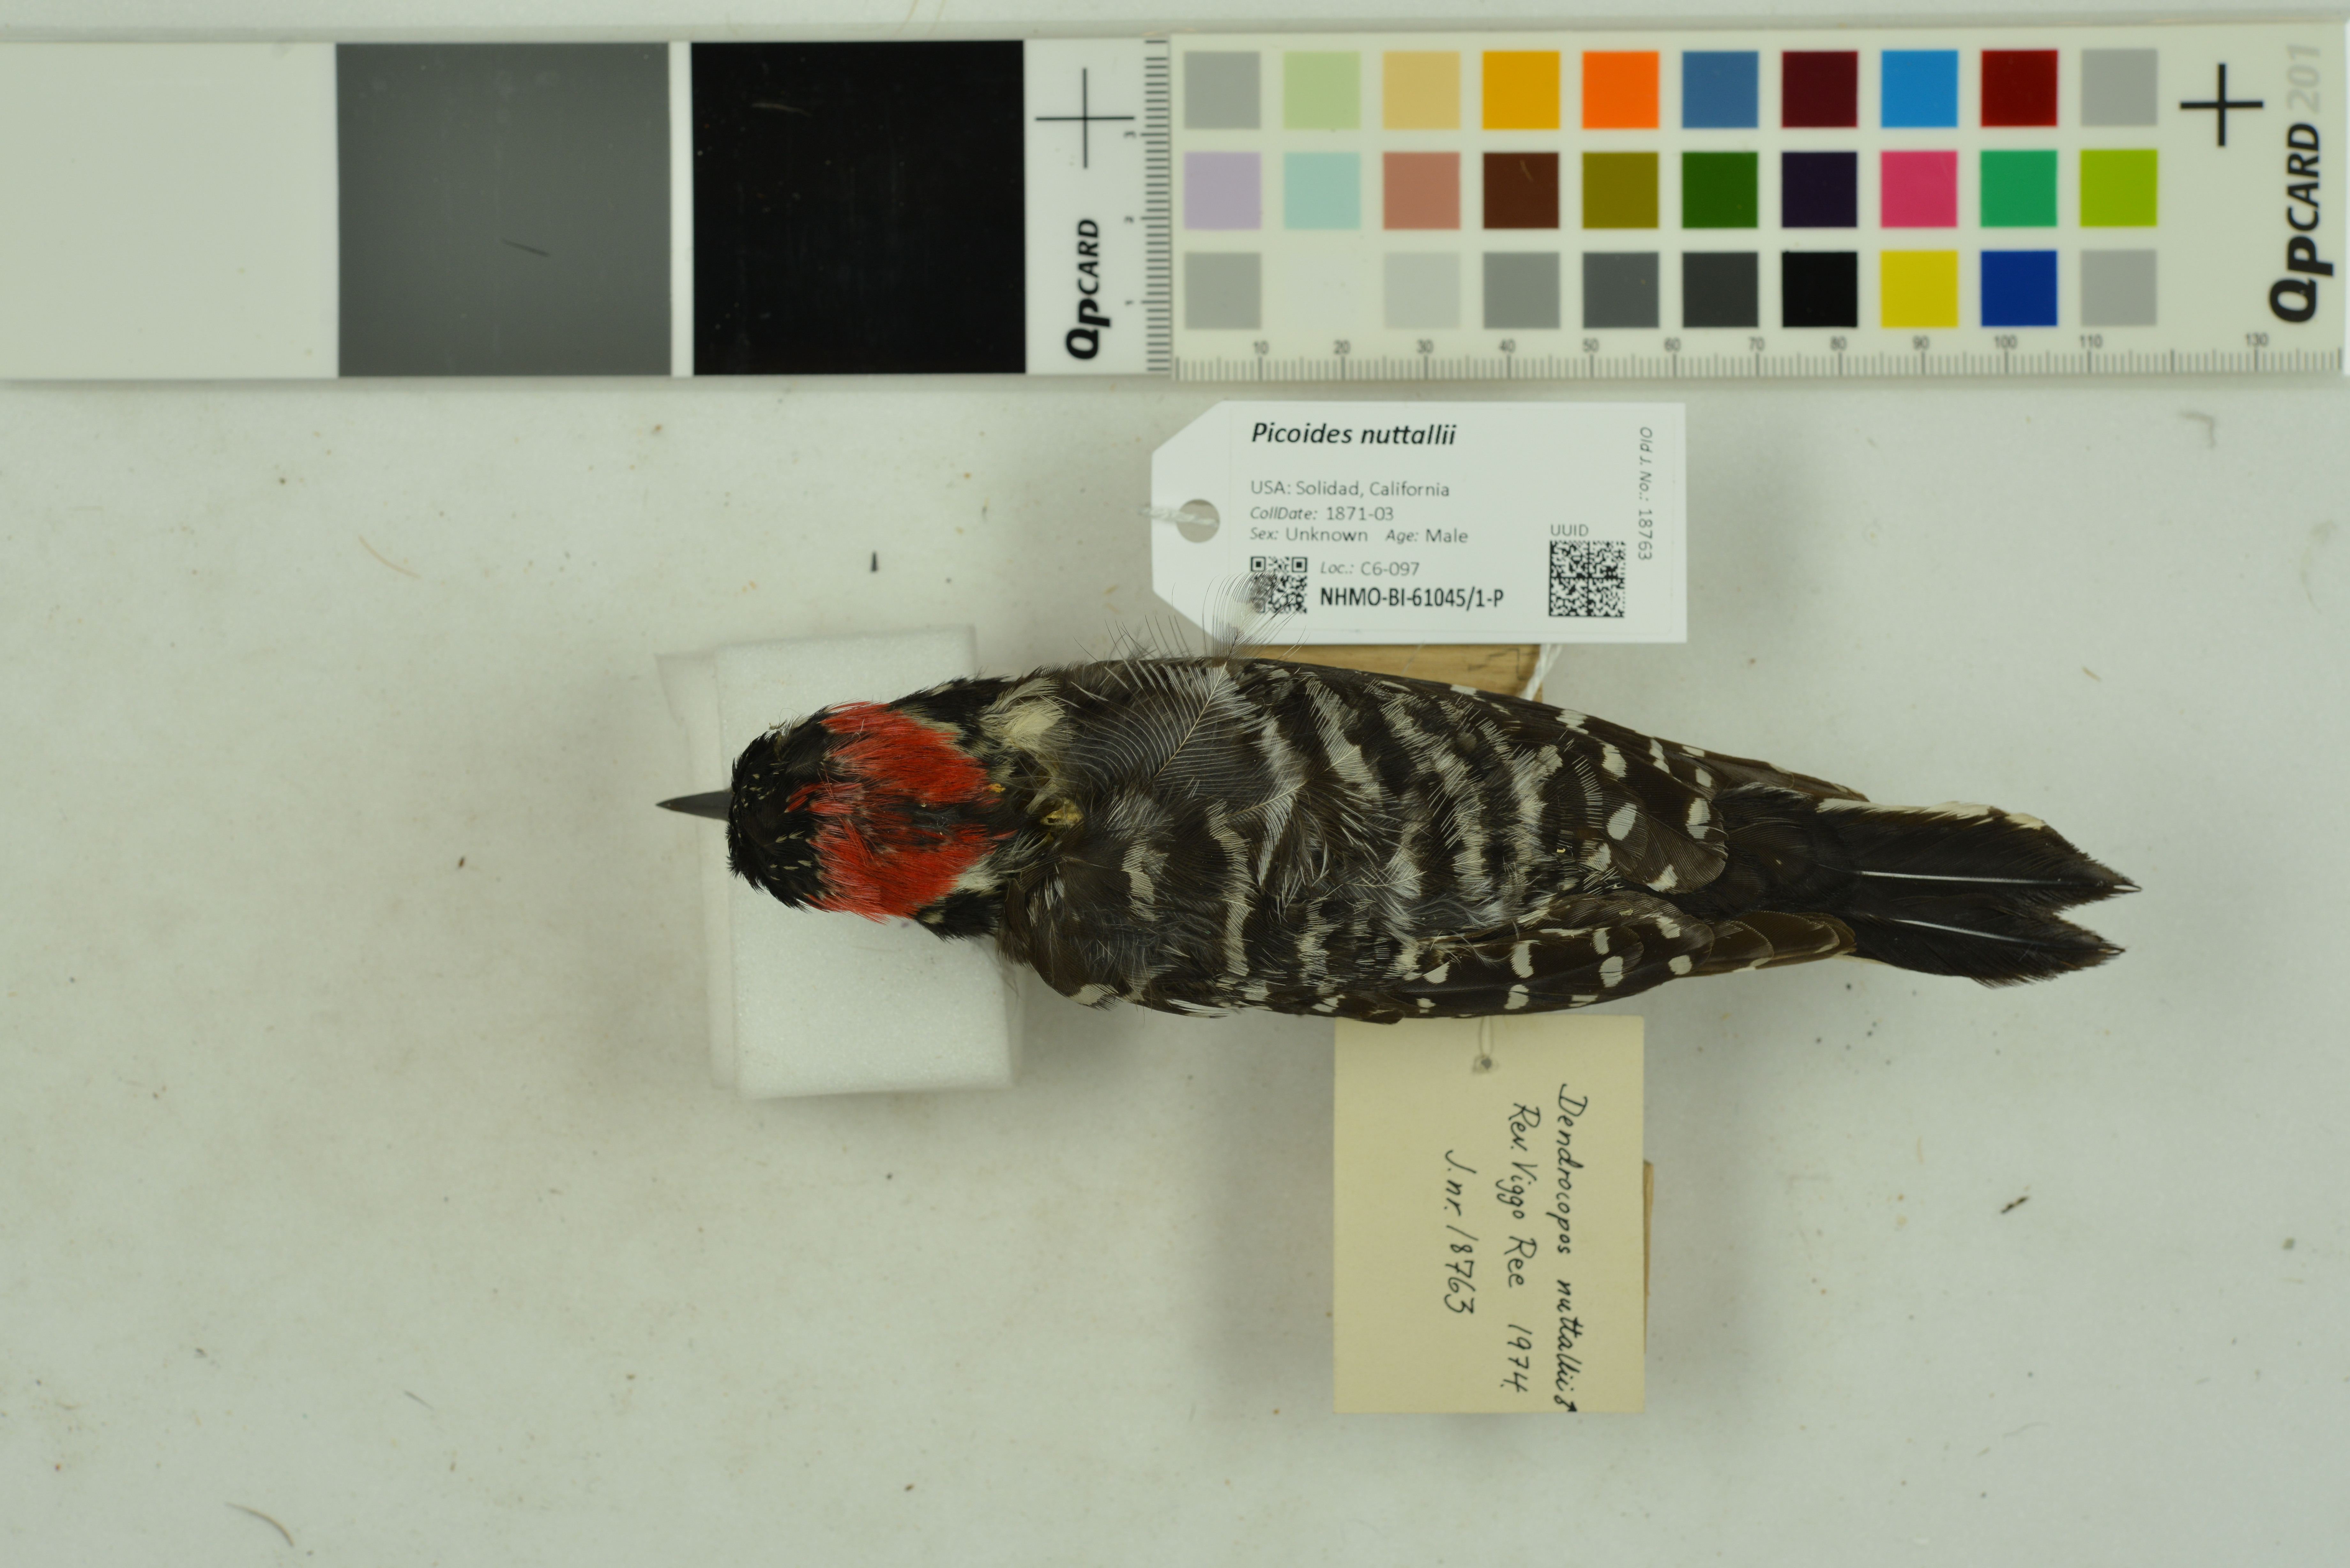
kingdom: Animalia
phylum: Chordata
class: Aves
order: Piciformes
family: Picidae
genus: Dryobates
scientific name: Dryobates nuttallii
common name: Nuttall's woodpecker
